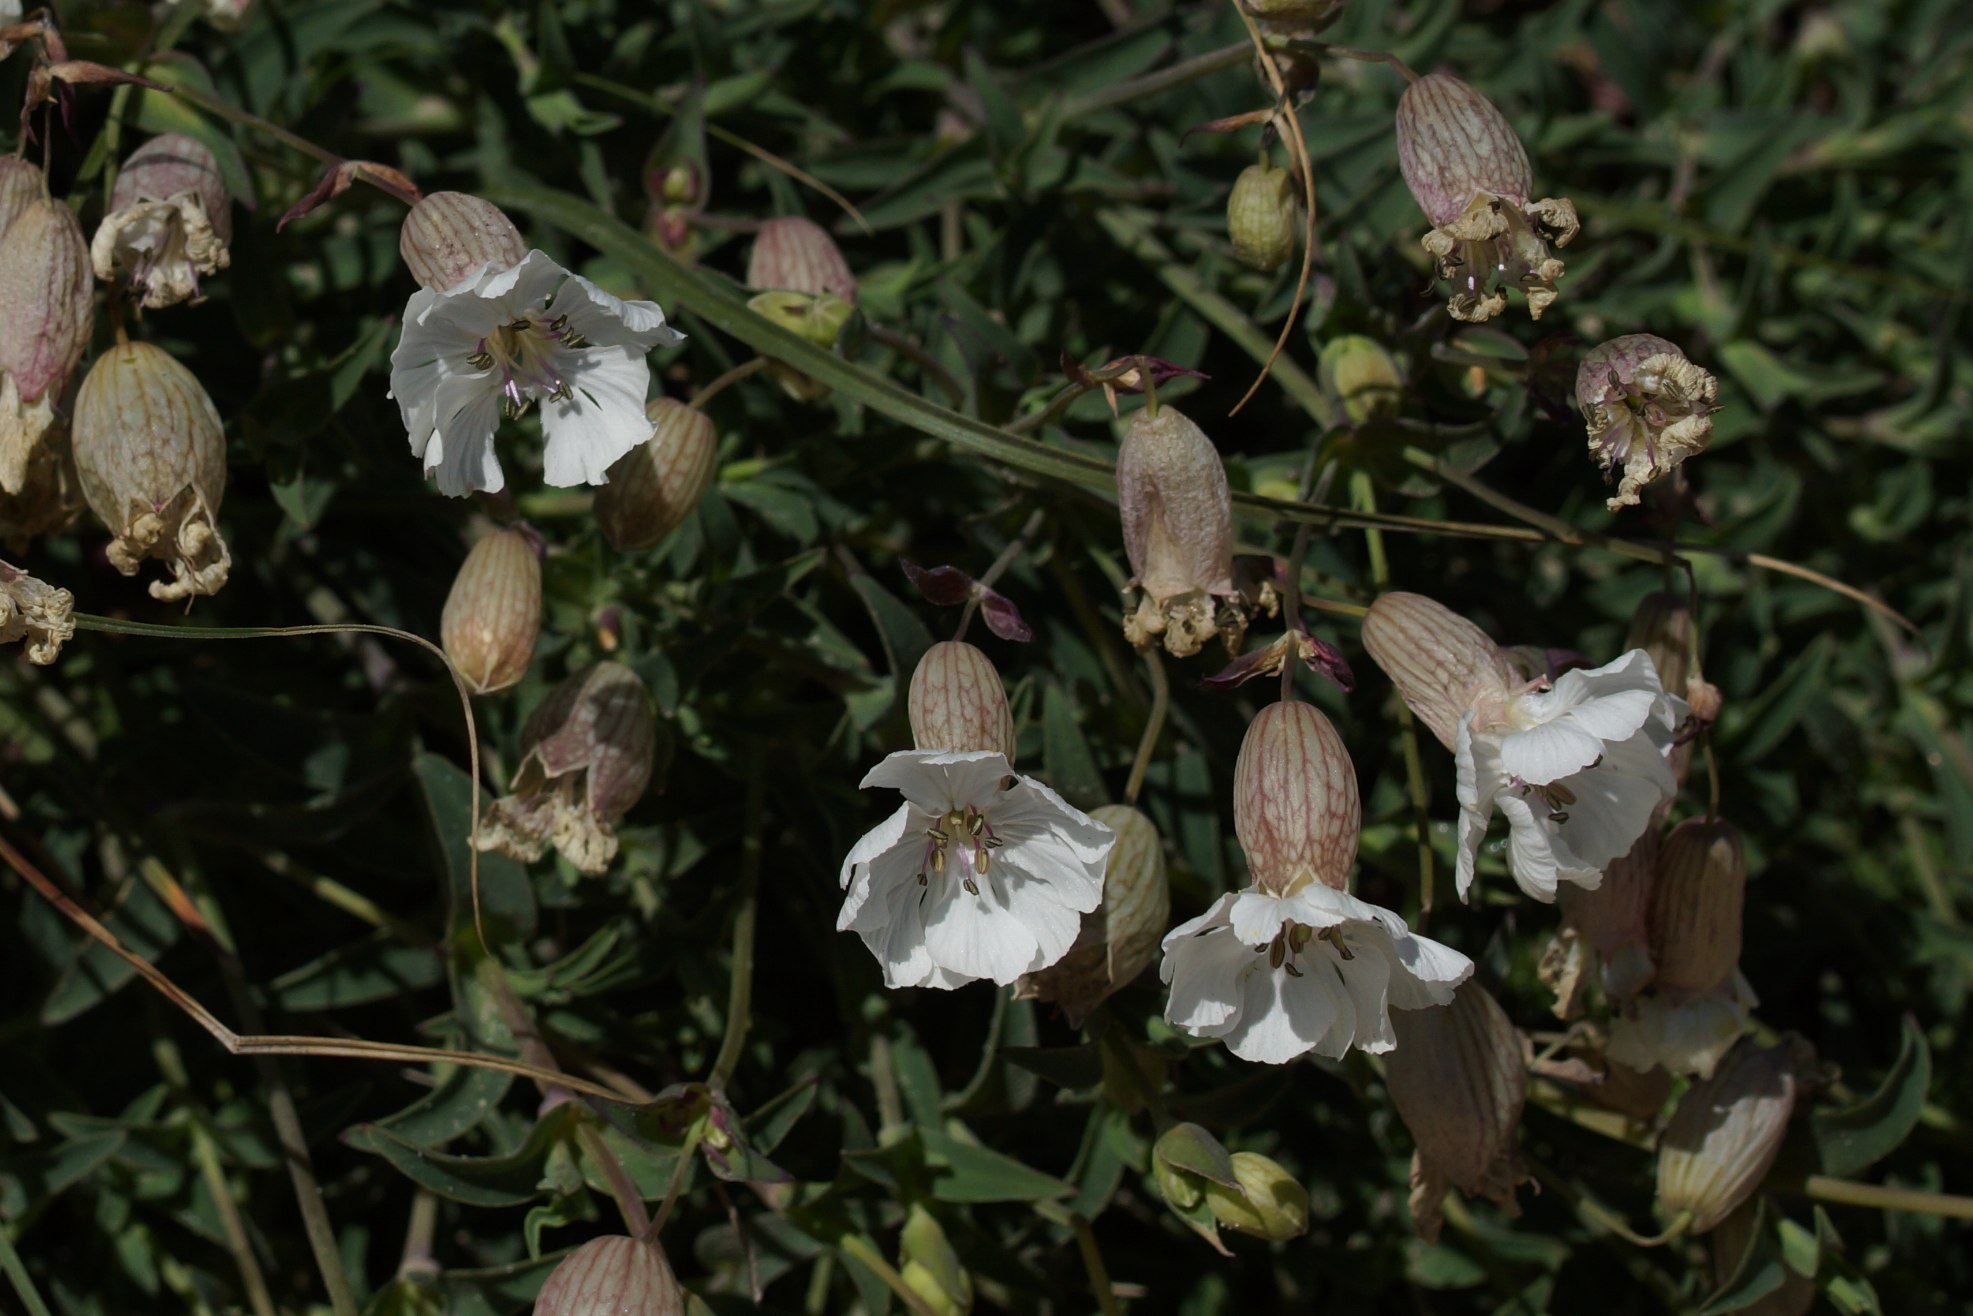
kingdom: Plantae
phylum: Tracheophyta
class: Magnoliopsida
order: Caryophyllales
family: Caryophyllaceae
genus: Silene
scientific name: Silene uniflora
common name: Strand-limurt
